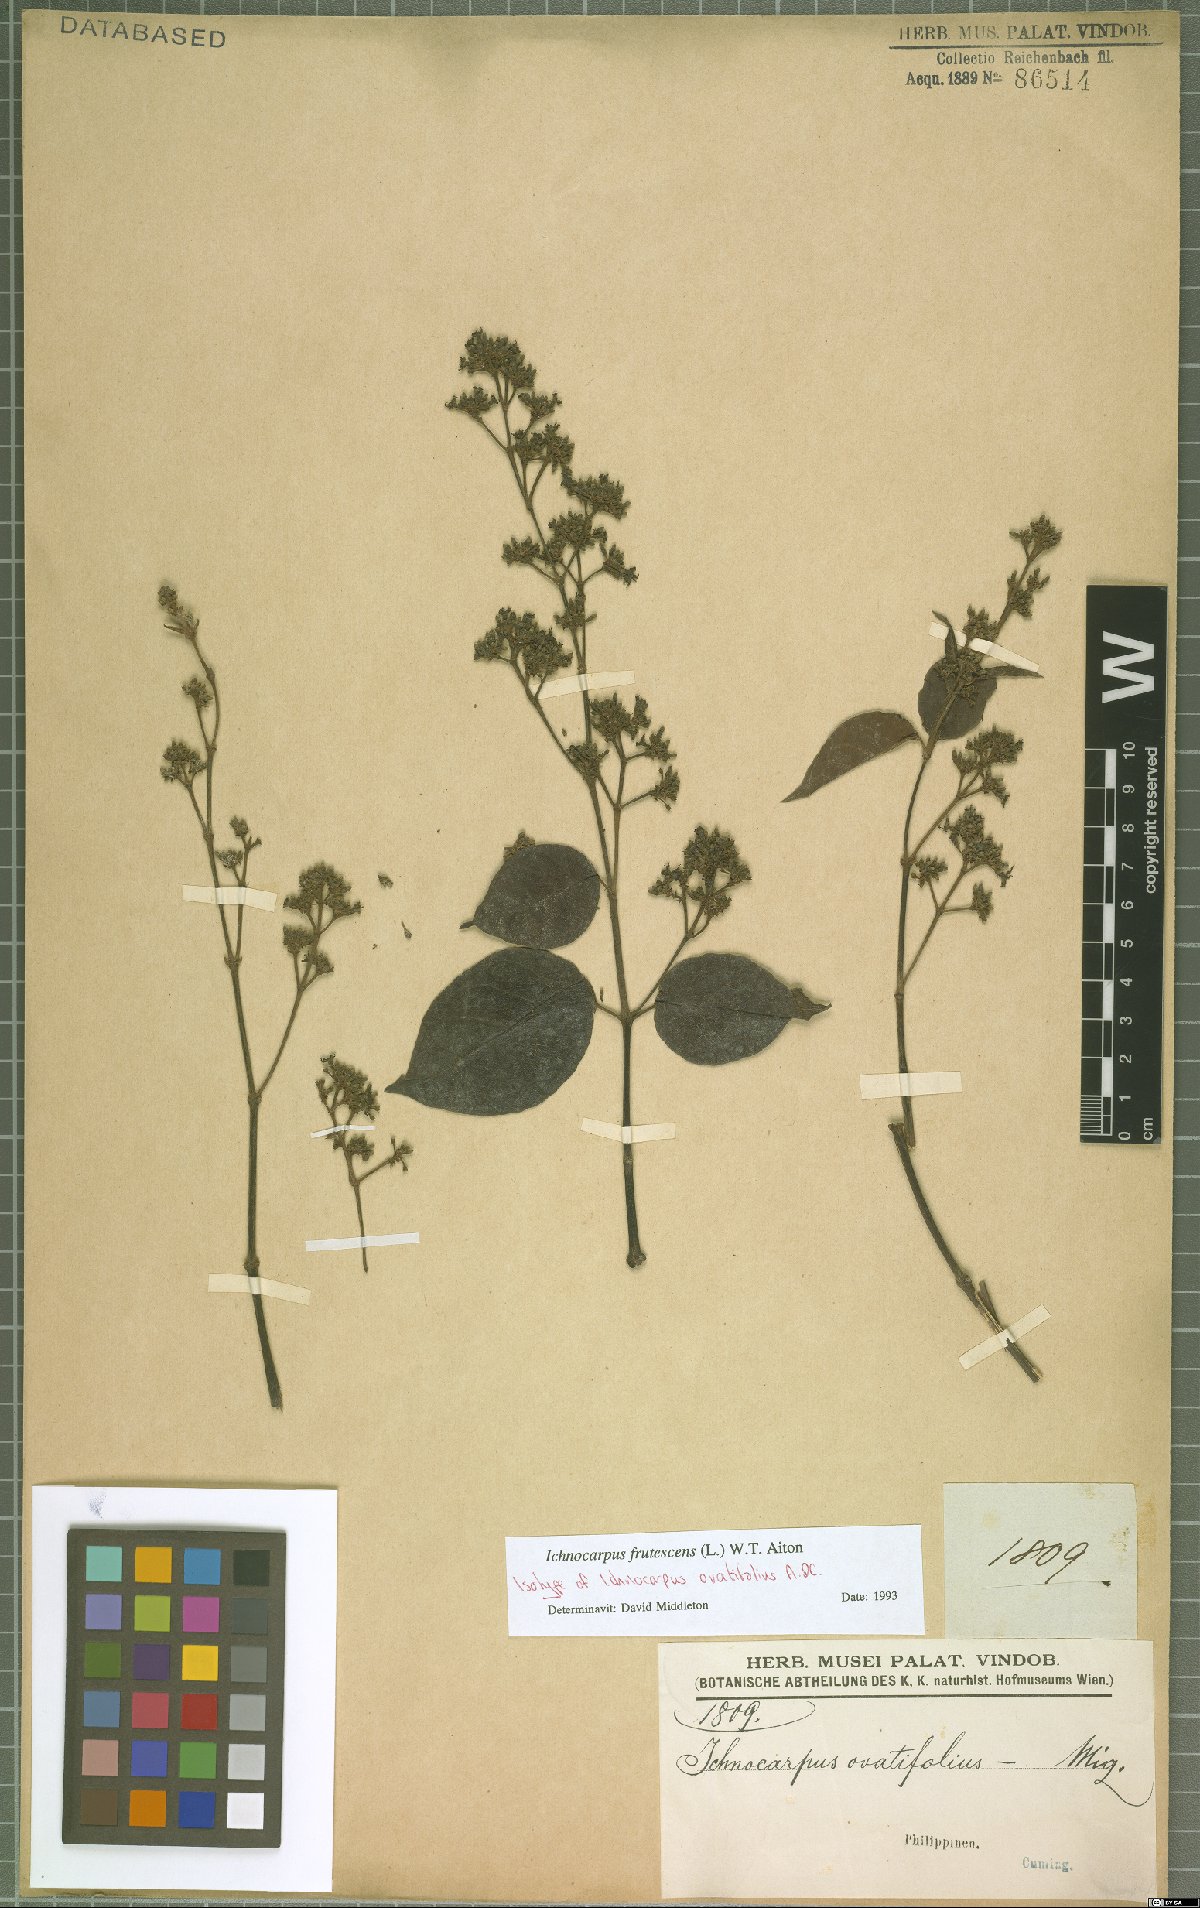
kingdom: Plantae
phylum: Tracheophyta
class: Magnoliopsida
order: Gentianales
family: Apocynaceae
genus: Ichnocarpus
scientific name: Ichnocarpus frutescens
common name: Ichnocarpus
